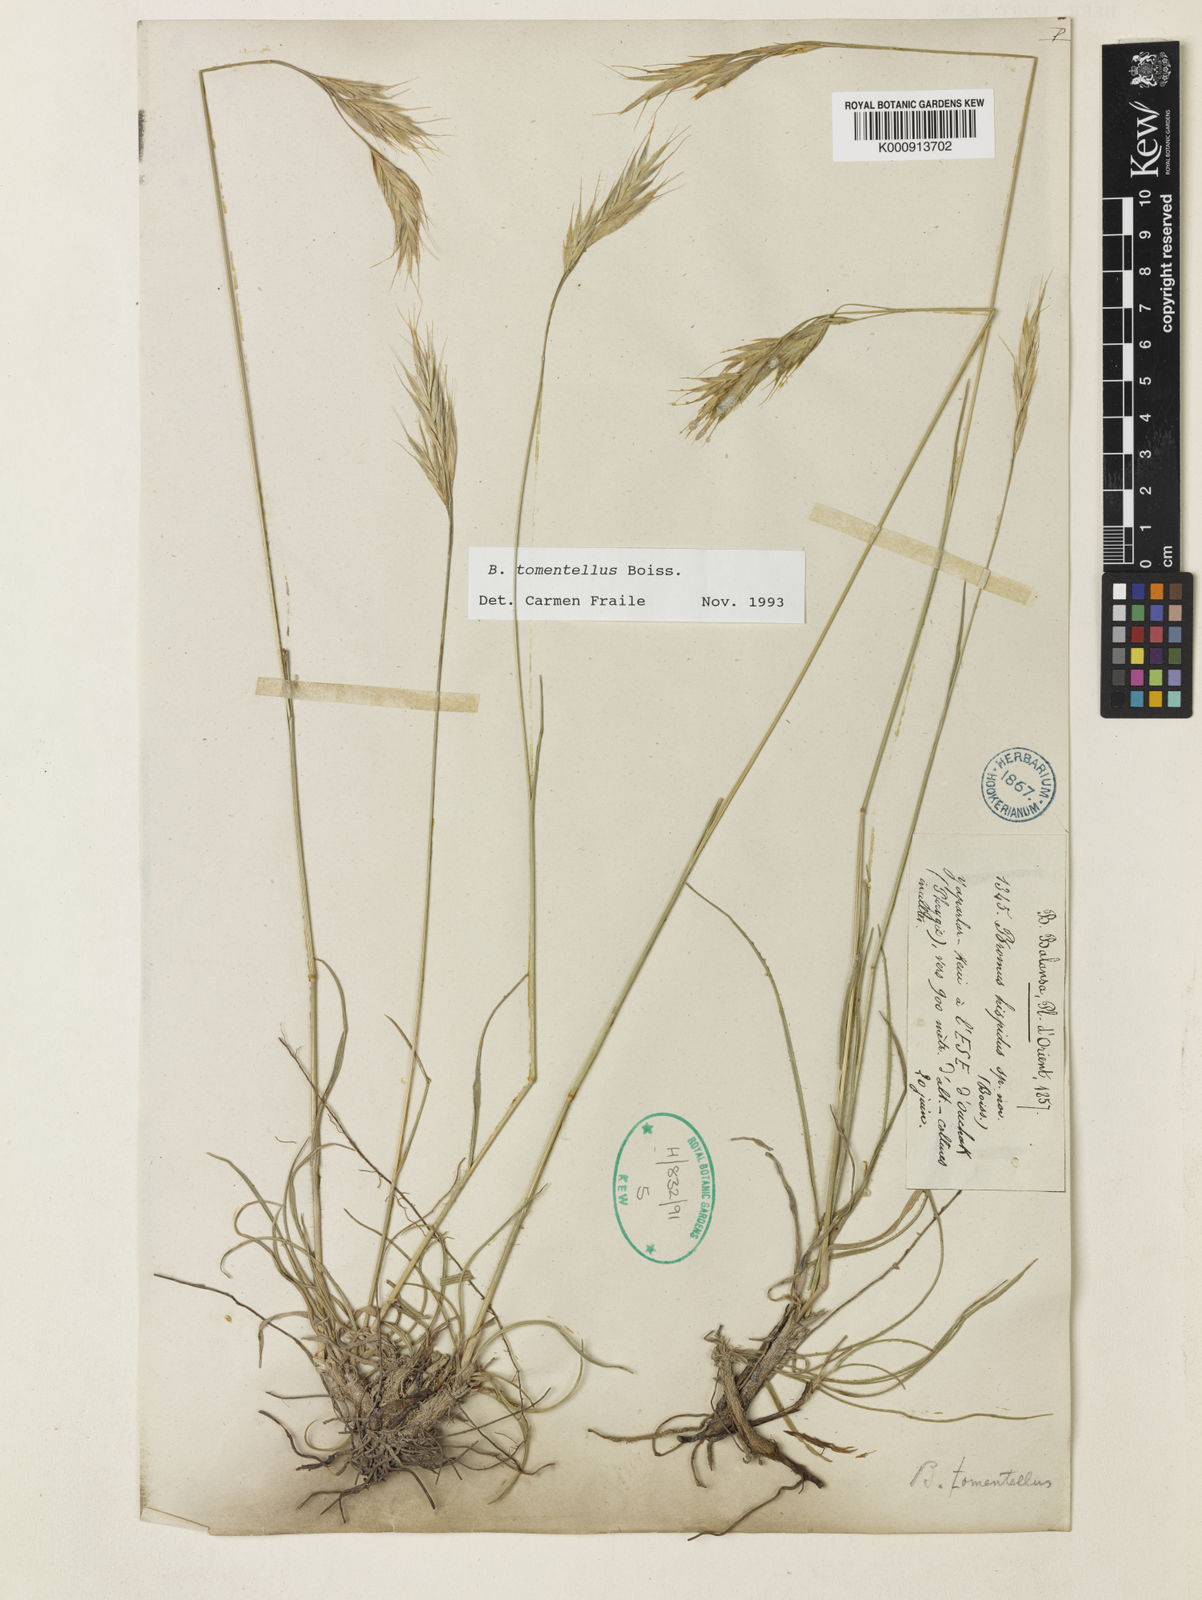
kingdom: Plantae
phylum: Tracheophyta
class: Liliopsida
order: Poales
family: Poaceae
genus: Bromus
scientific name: Bromus tomentellus
